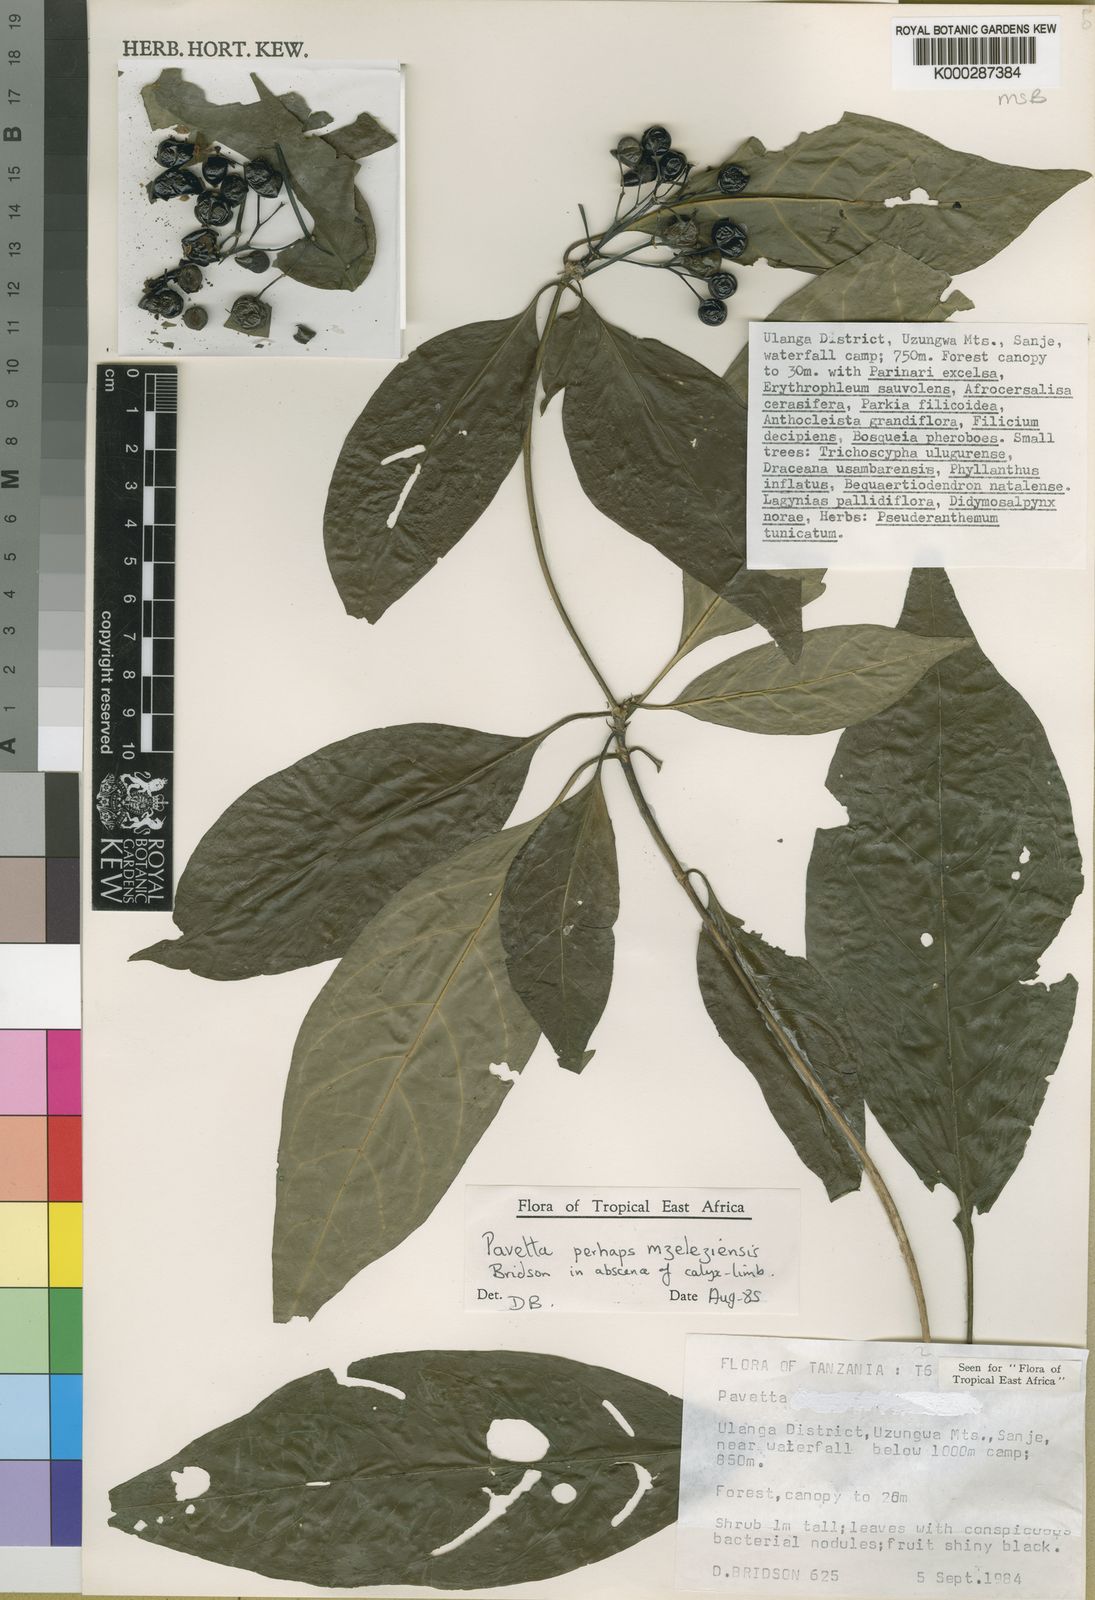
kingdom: Plantae
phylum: Tracheophyta
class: Magnoliopsida
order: Gentianales
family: Rubiaceae
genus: Pavetta
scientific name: Pavetta mzeleziensis
